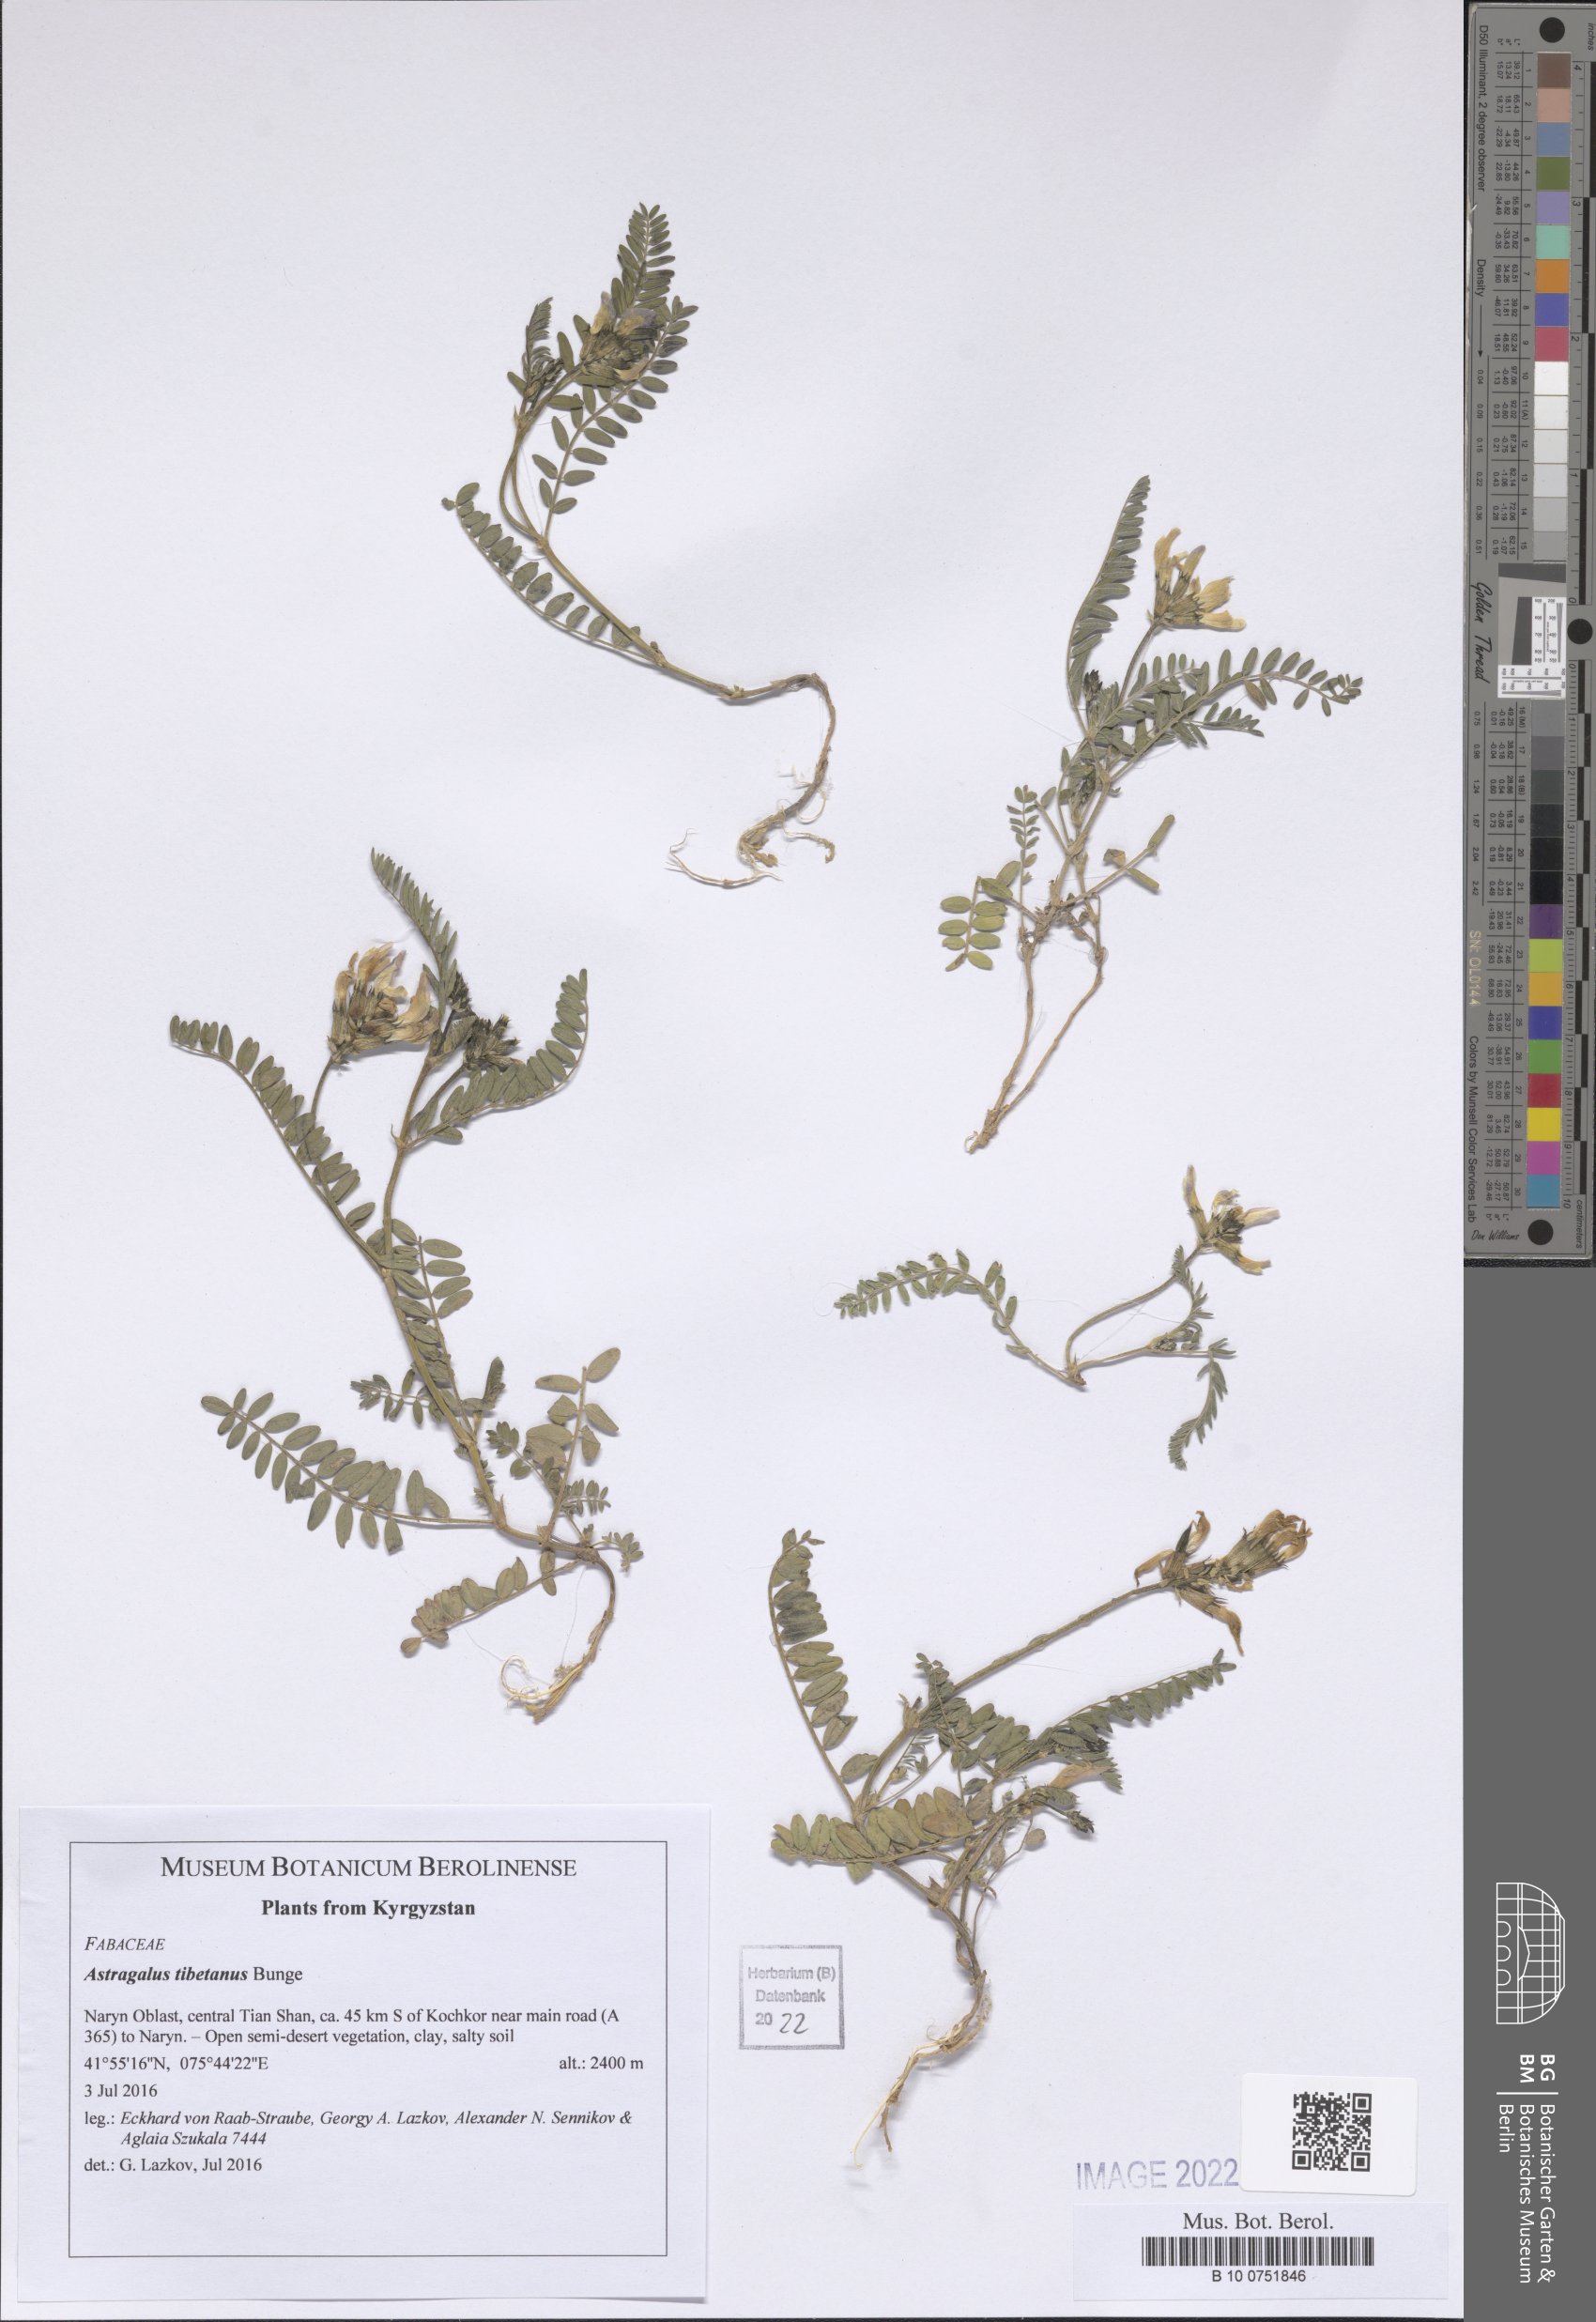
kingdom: Plantae
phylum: Tracheophyta
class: Magnoliopsida
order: Fabales
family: Fabaceae
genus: Astragalus
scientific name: Astragalus tibetanus
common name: Tibet milkvetch
